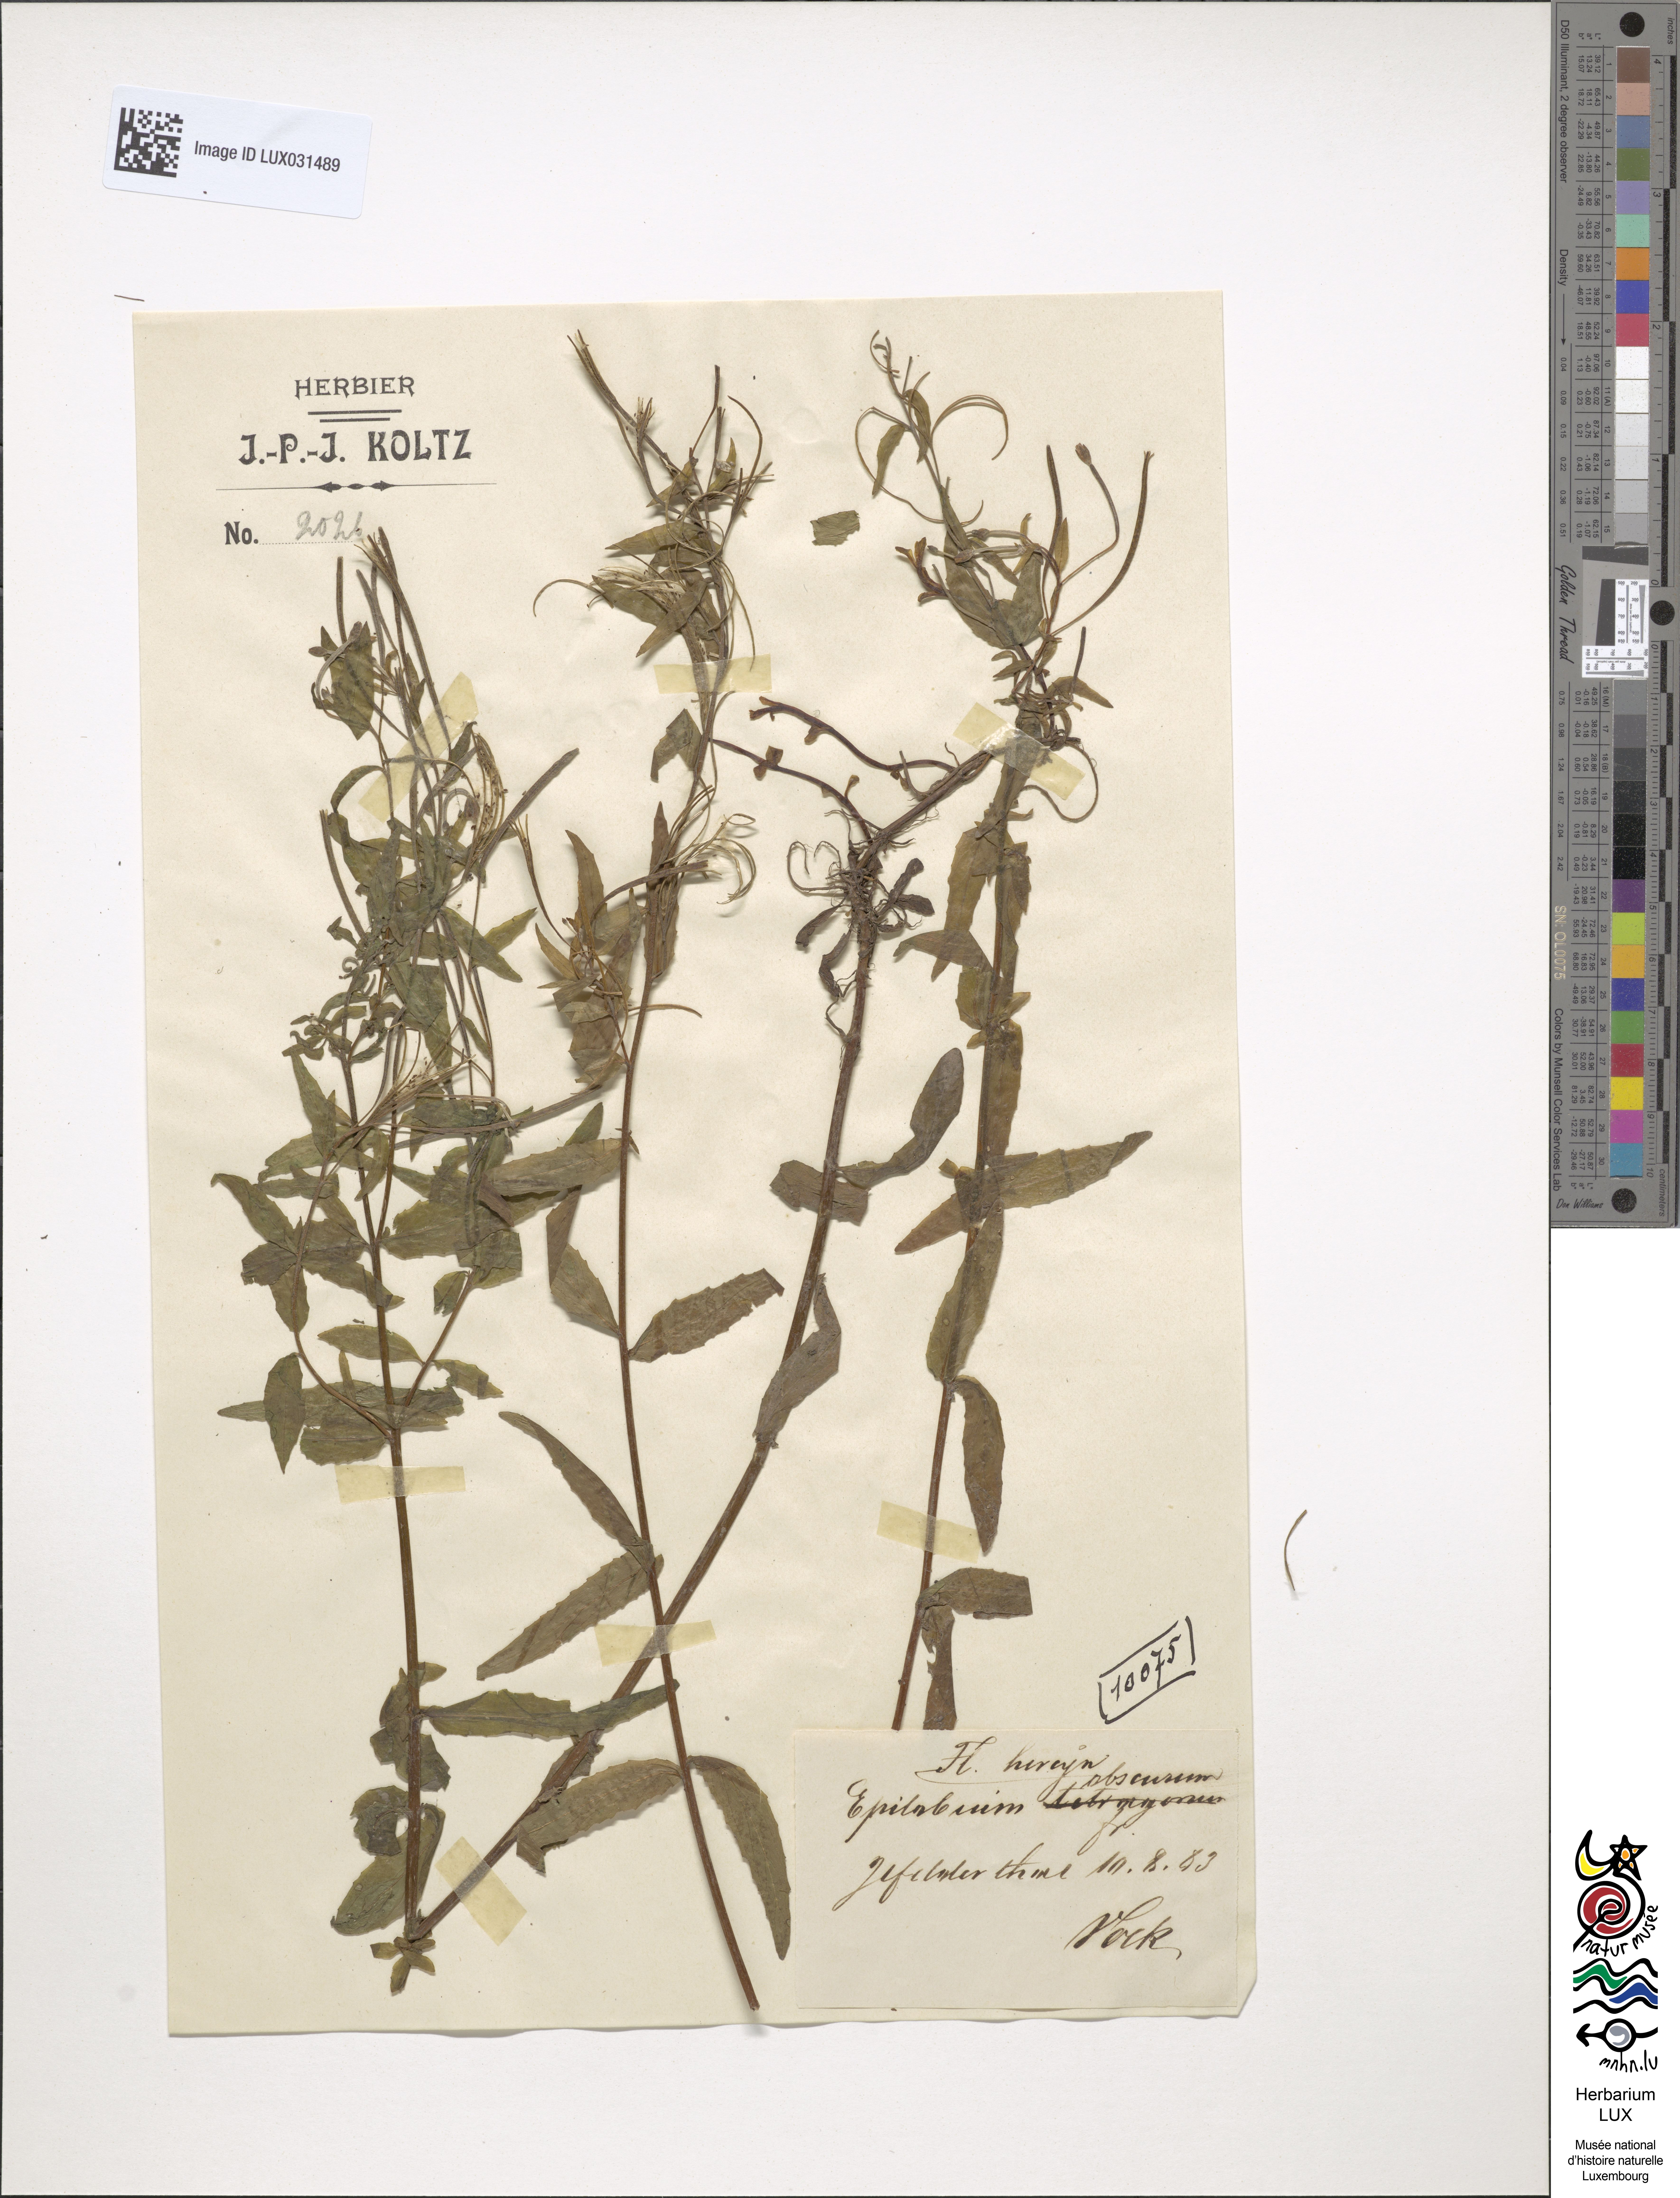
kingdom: Plantae
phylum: Tracheophyta
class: Magnoliopsida
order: Myrtales
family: Onagraceae
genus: Epilobium
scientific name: Epilobium obscurum
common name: Short-fruited willowherb
